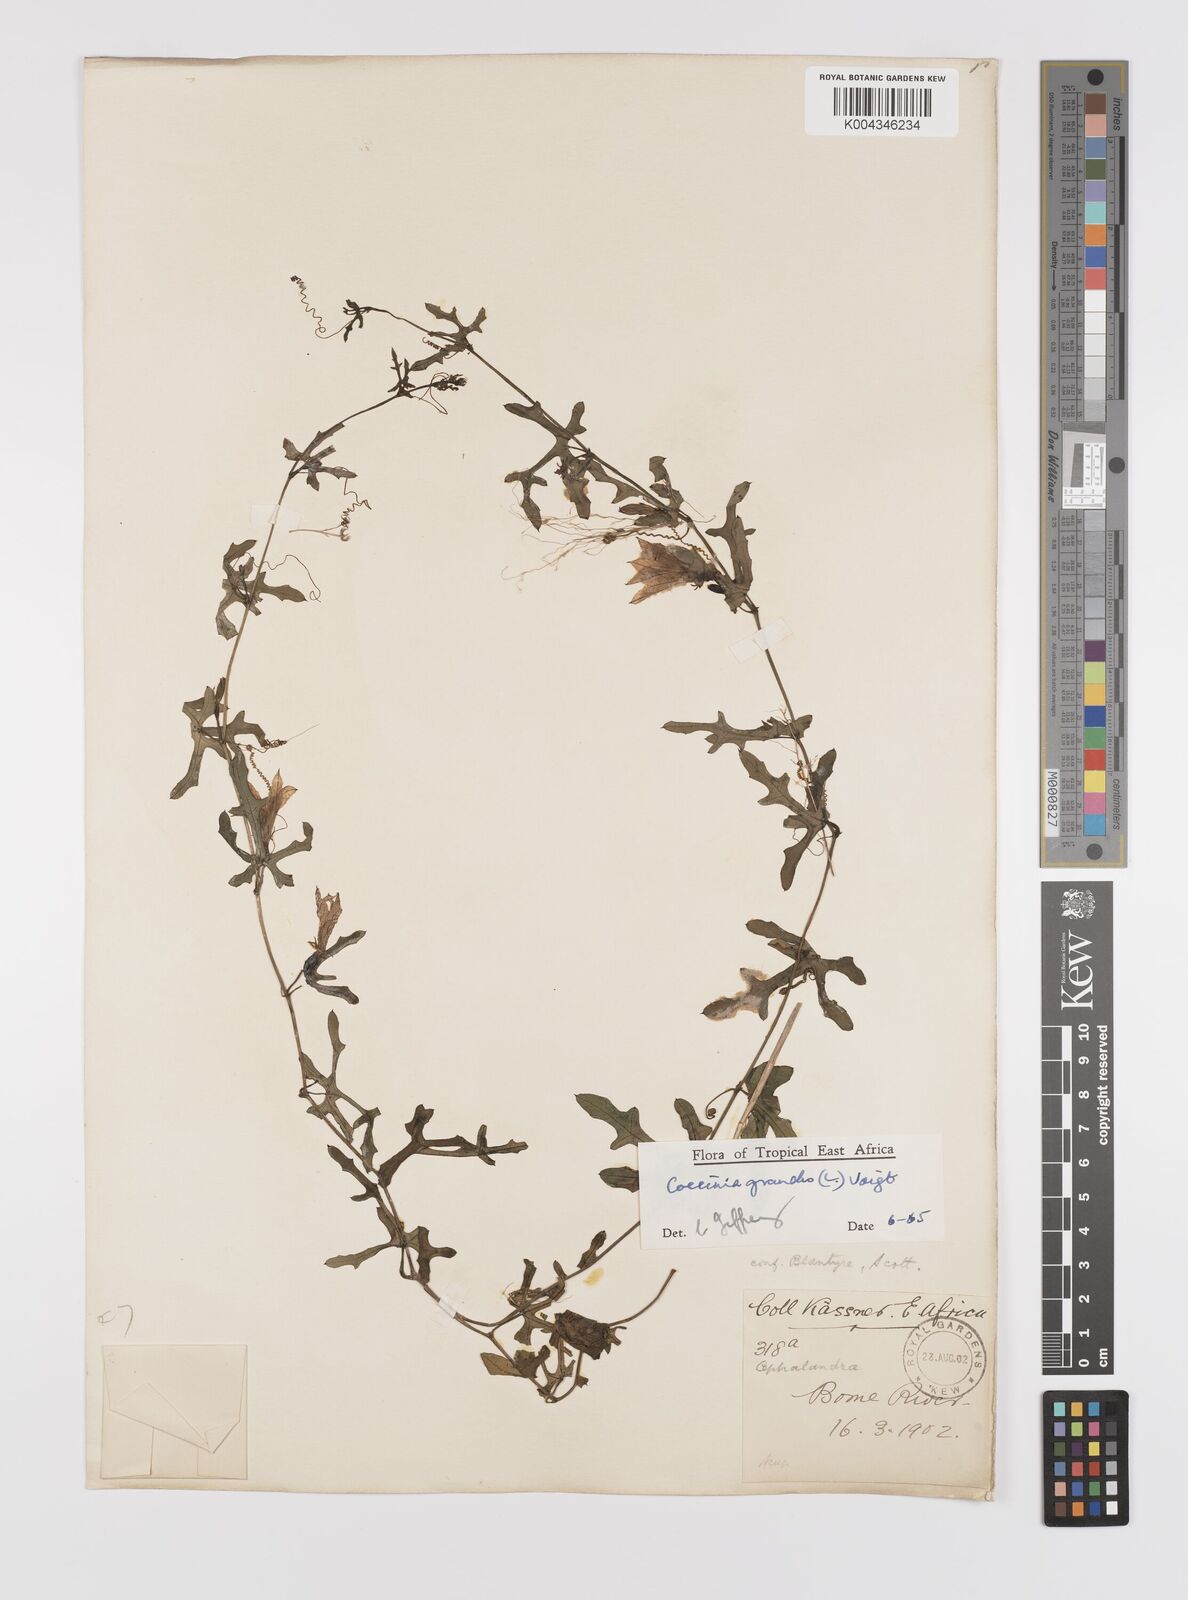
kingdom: Plantae
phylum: Tracheophyta
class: Magnoliopsida
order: Cucurbitales
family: Cucurbitaceae
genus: Coccinia
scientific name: Coccinia grandis
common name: Ivy gourd
